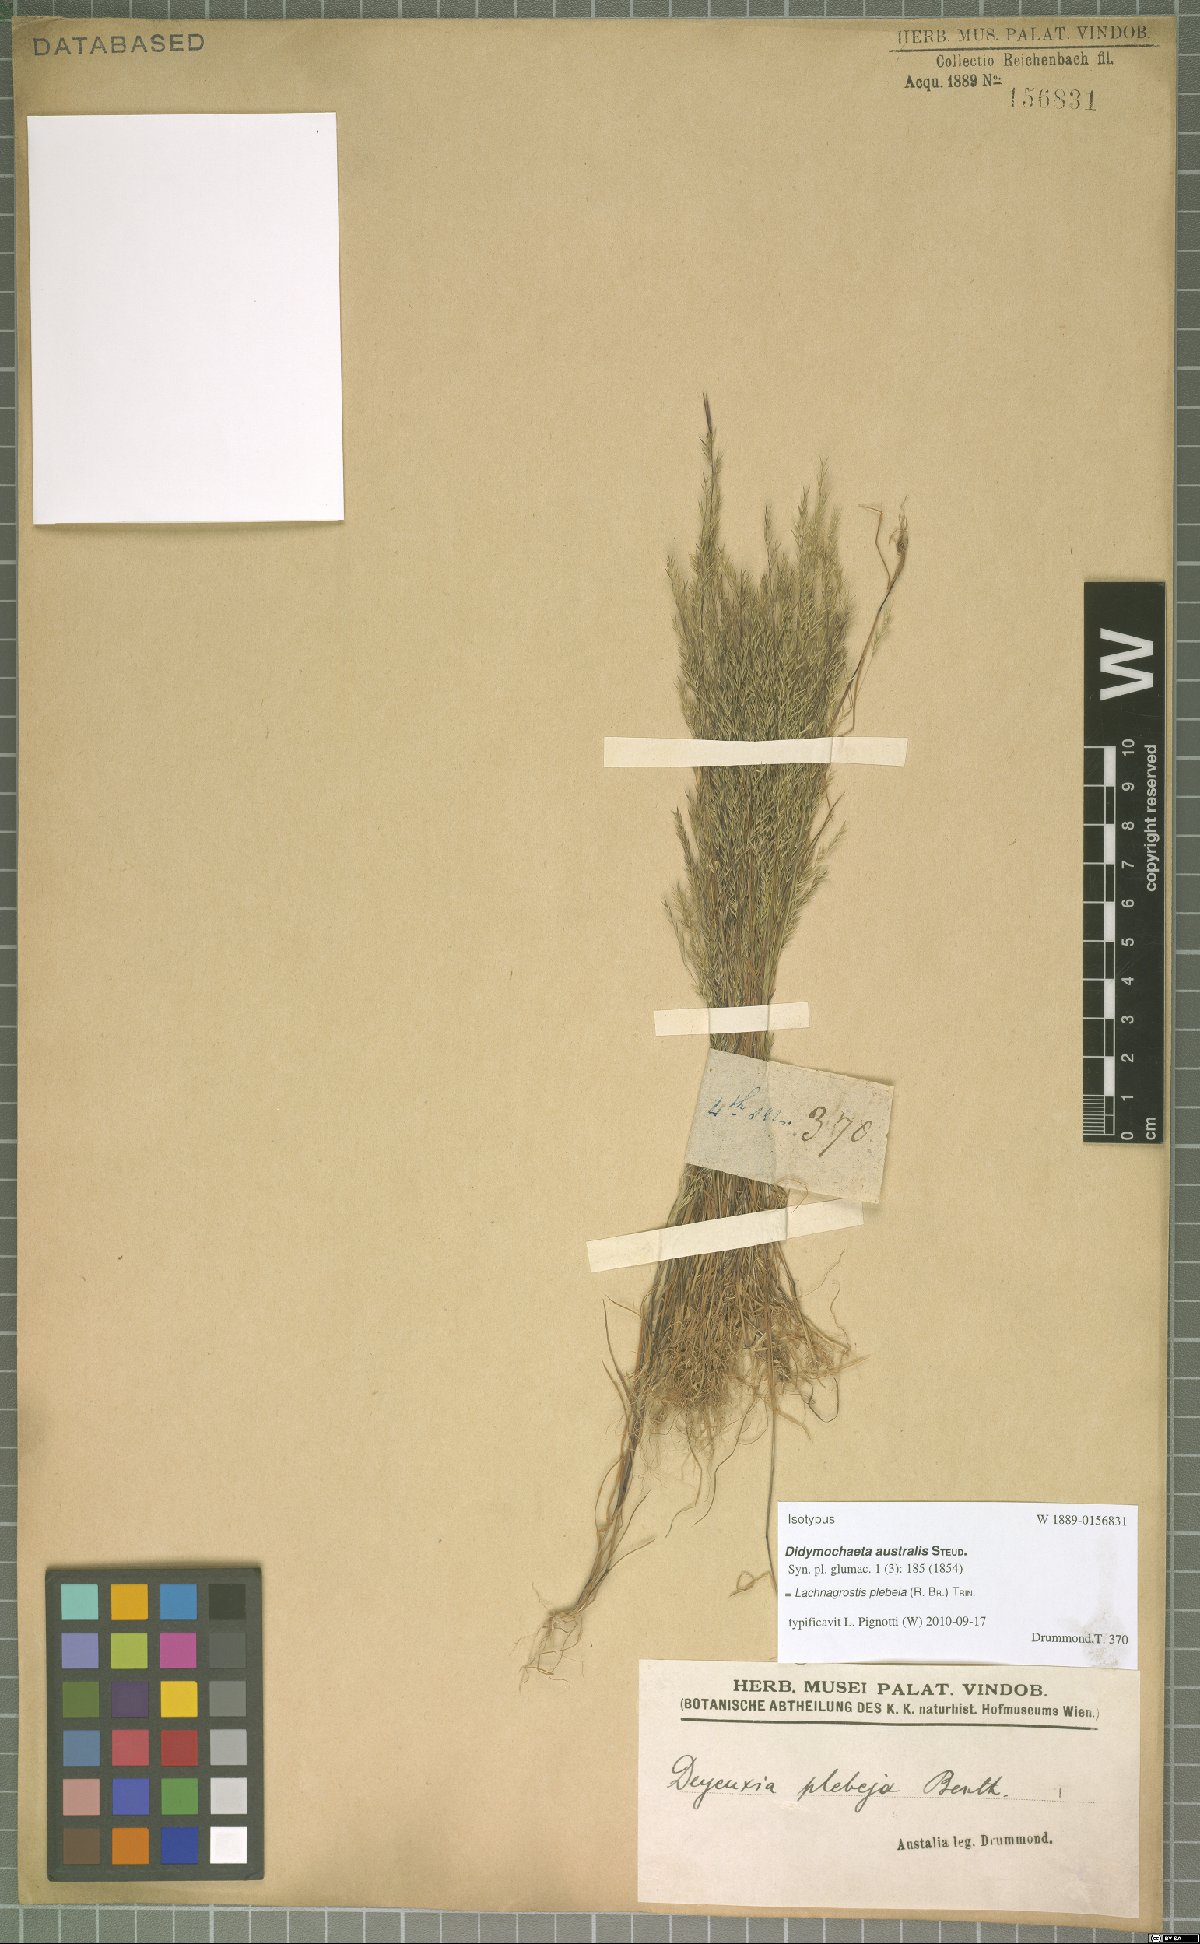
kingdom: Plantae
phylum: Tracheophyta
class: Liliopsida
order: Poales
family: Poaceae
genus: Lachnagrostis
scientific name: Lachnagrostis plebeia
